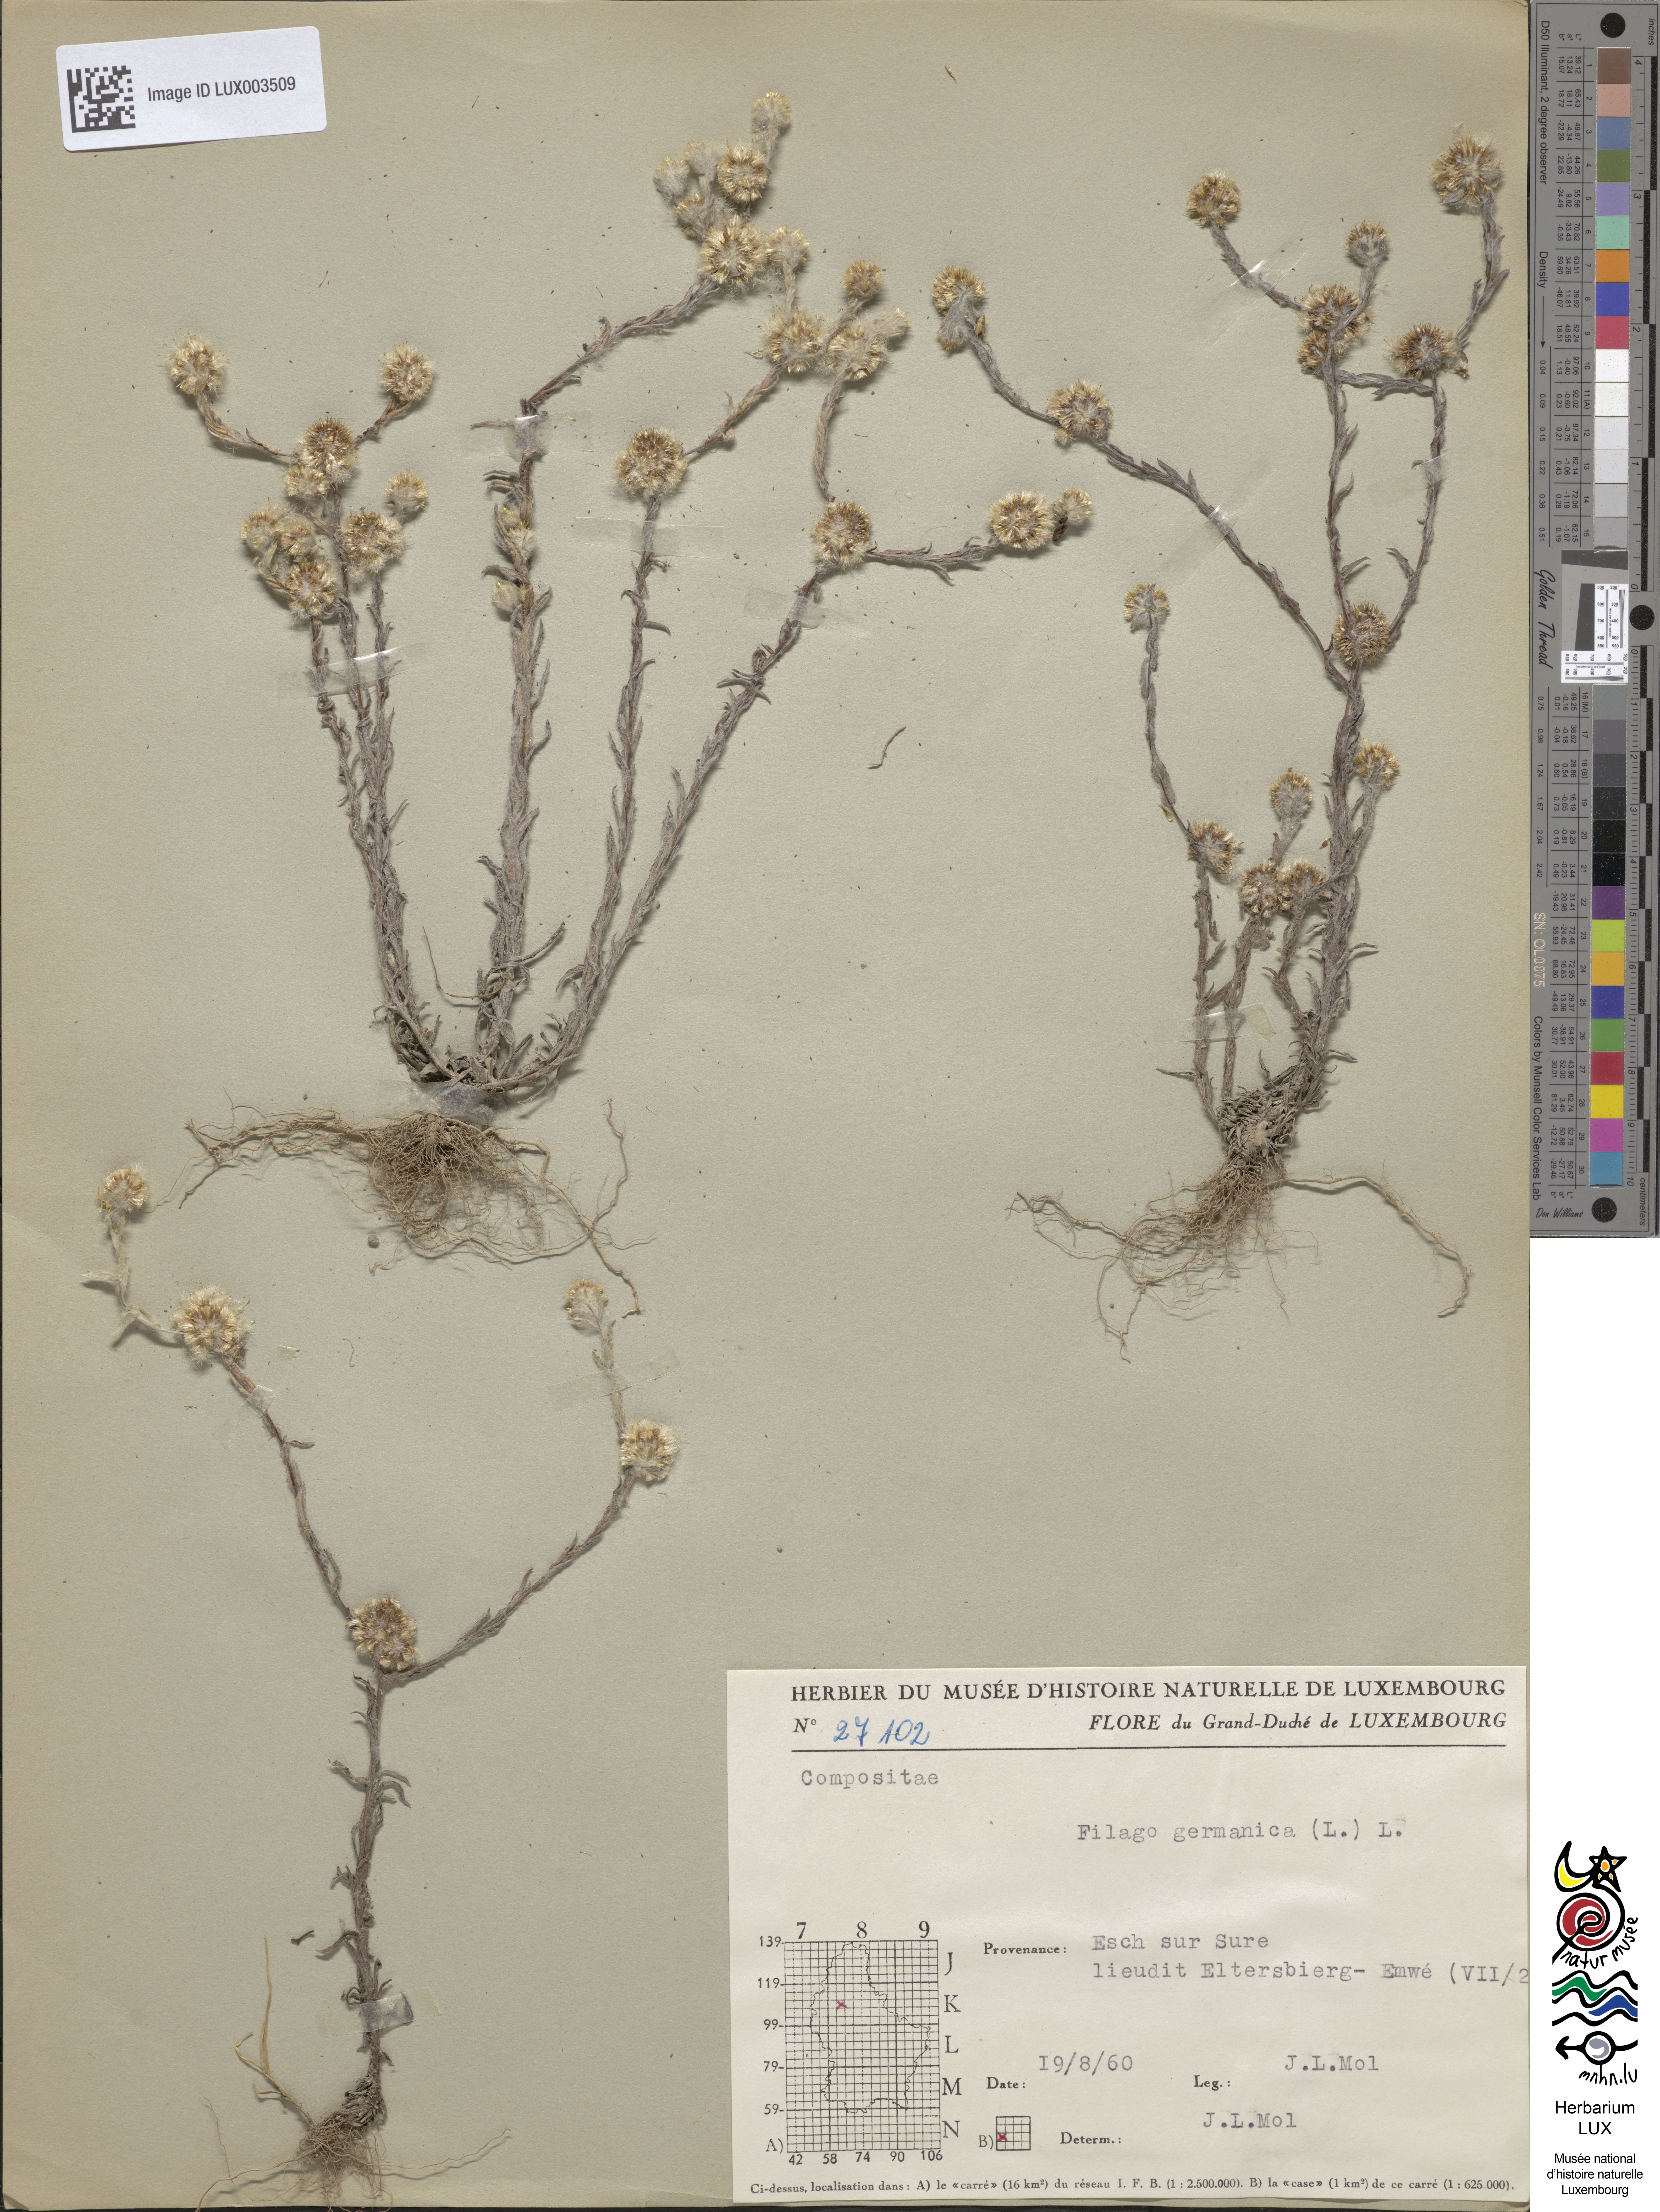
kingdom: Plantae
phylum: Tracheophyta
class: Magnoliopsida
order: Asterales
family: Asteraceae
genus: Filago
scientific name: Filago germanica
